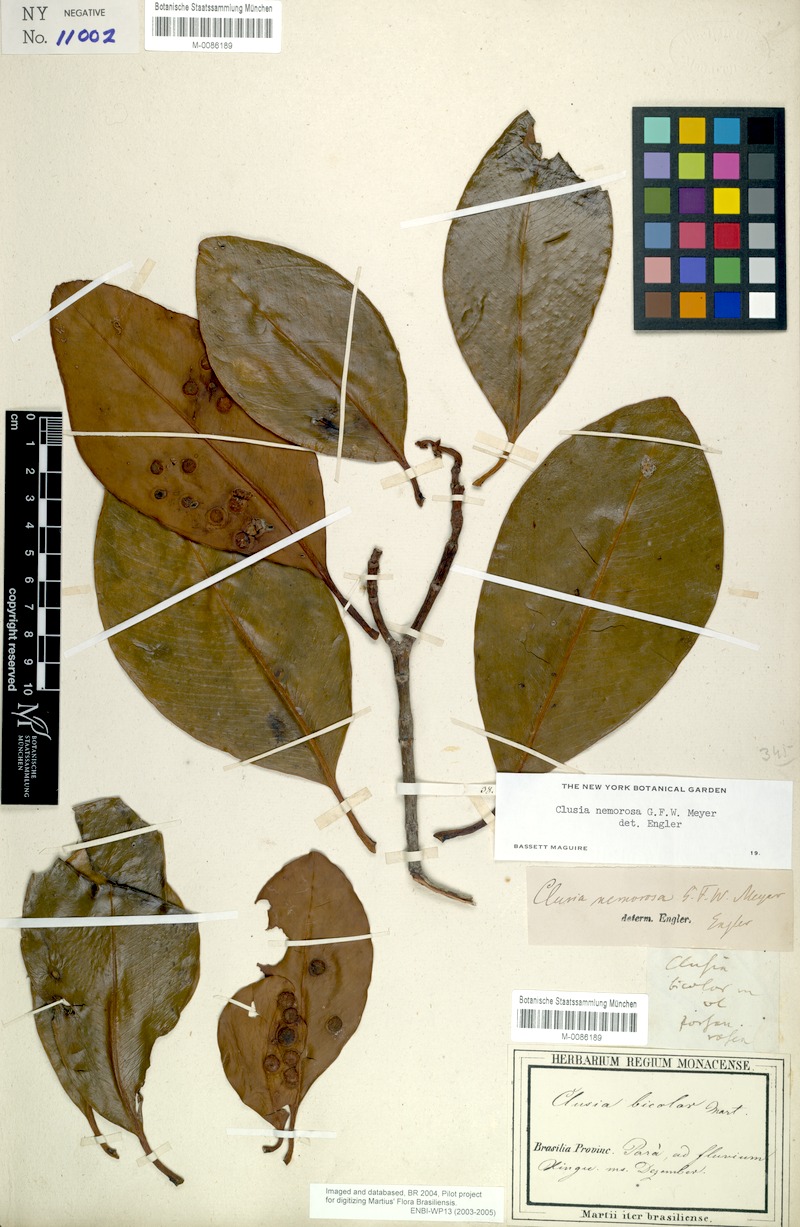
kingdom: Plantae
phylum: Tracheophyta
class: Magnoliopsida
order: Malpighiales
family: Clusiaceae
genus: Clusia
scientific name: Clusia nemorosa
